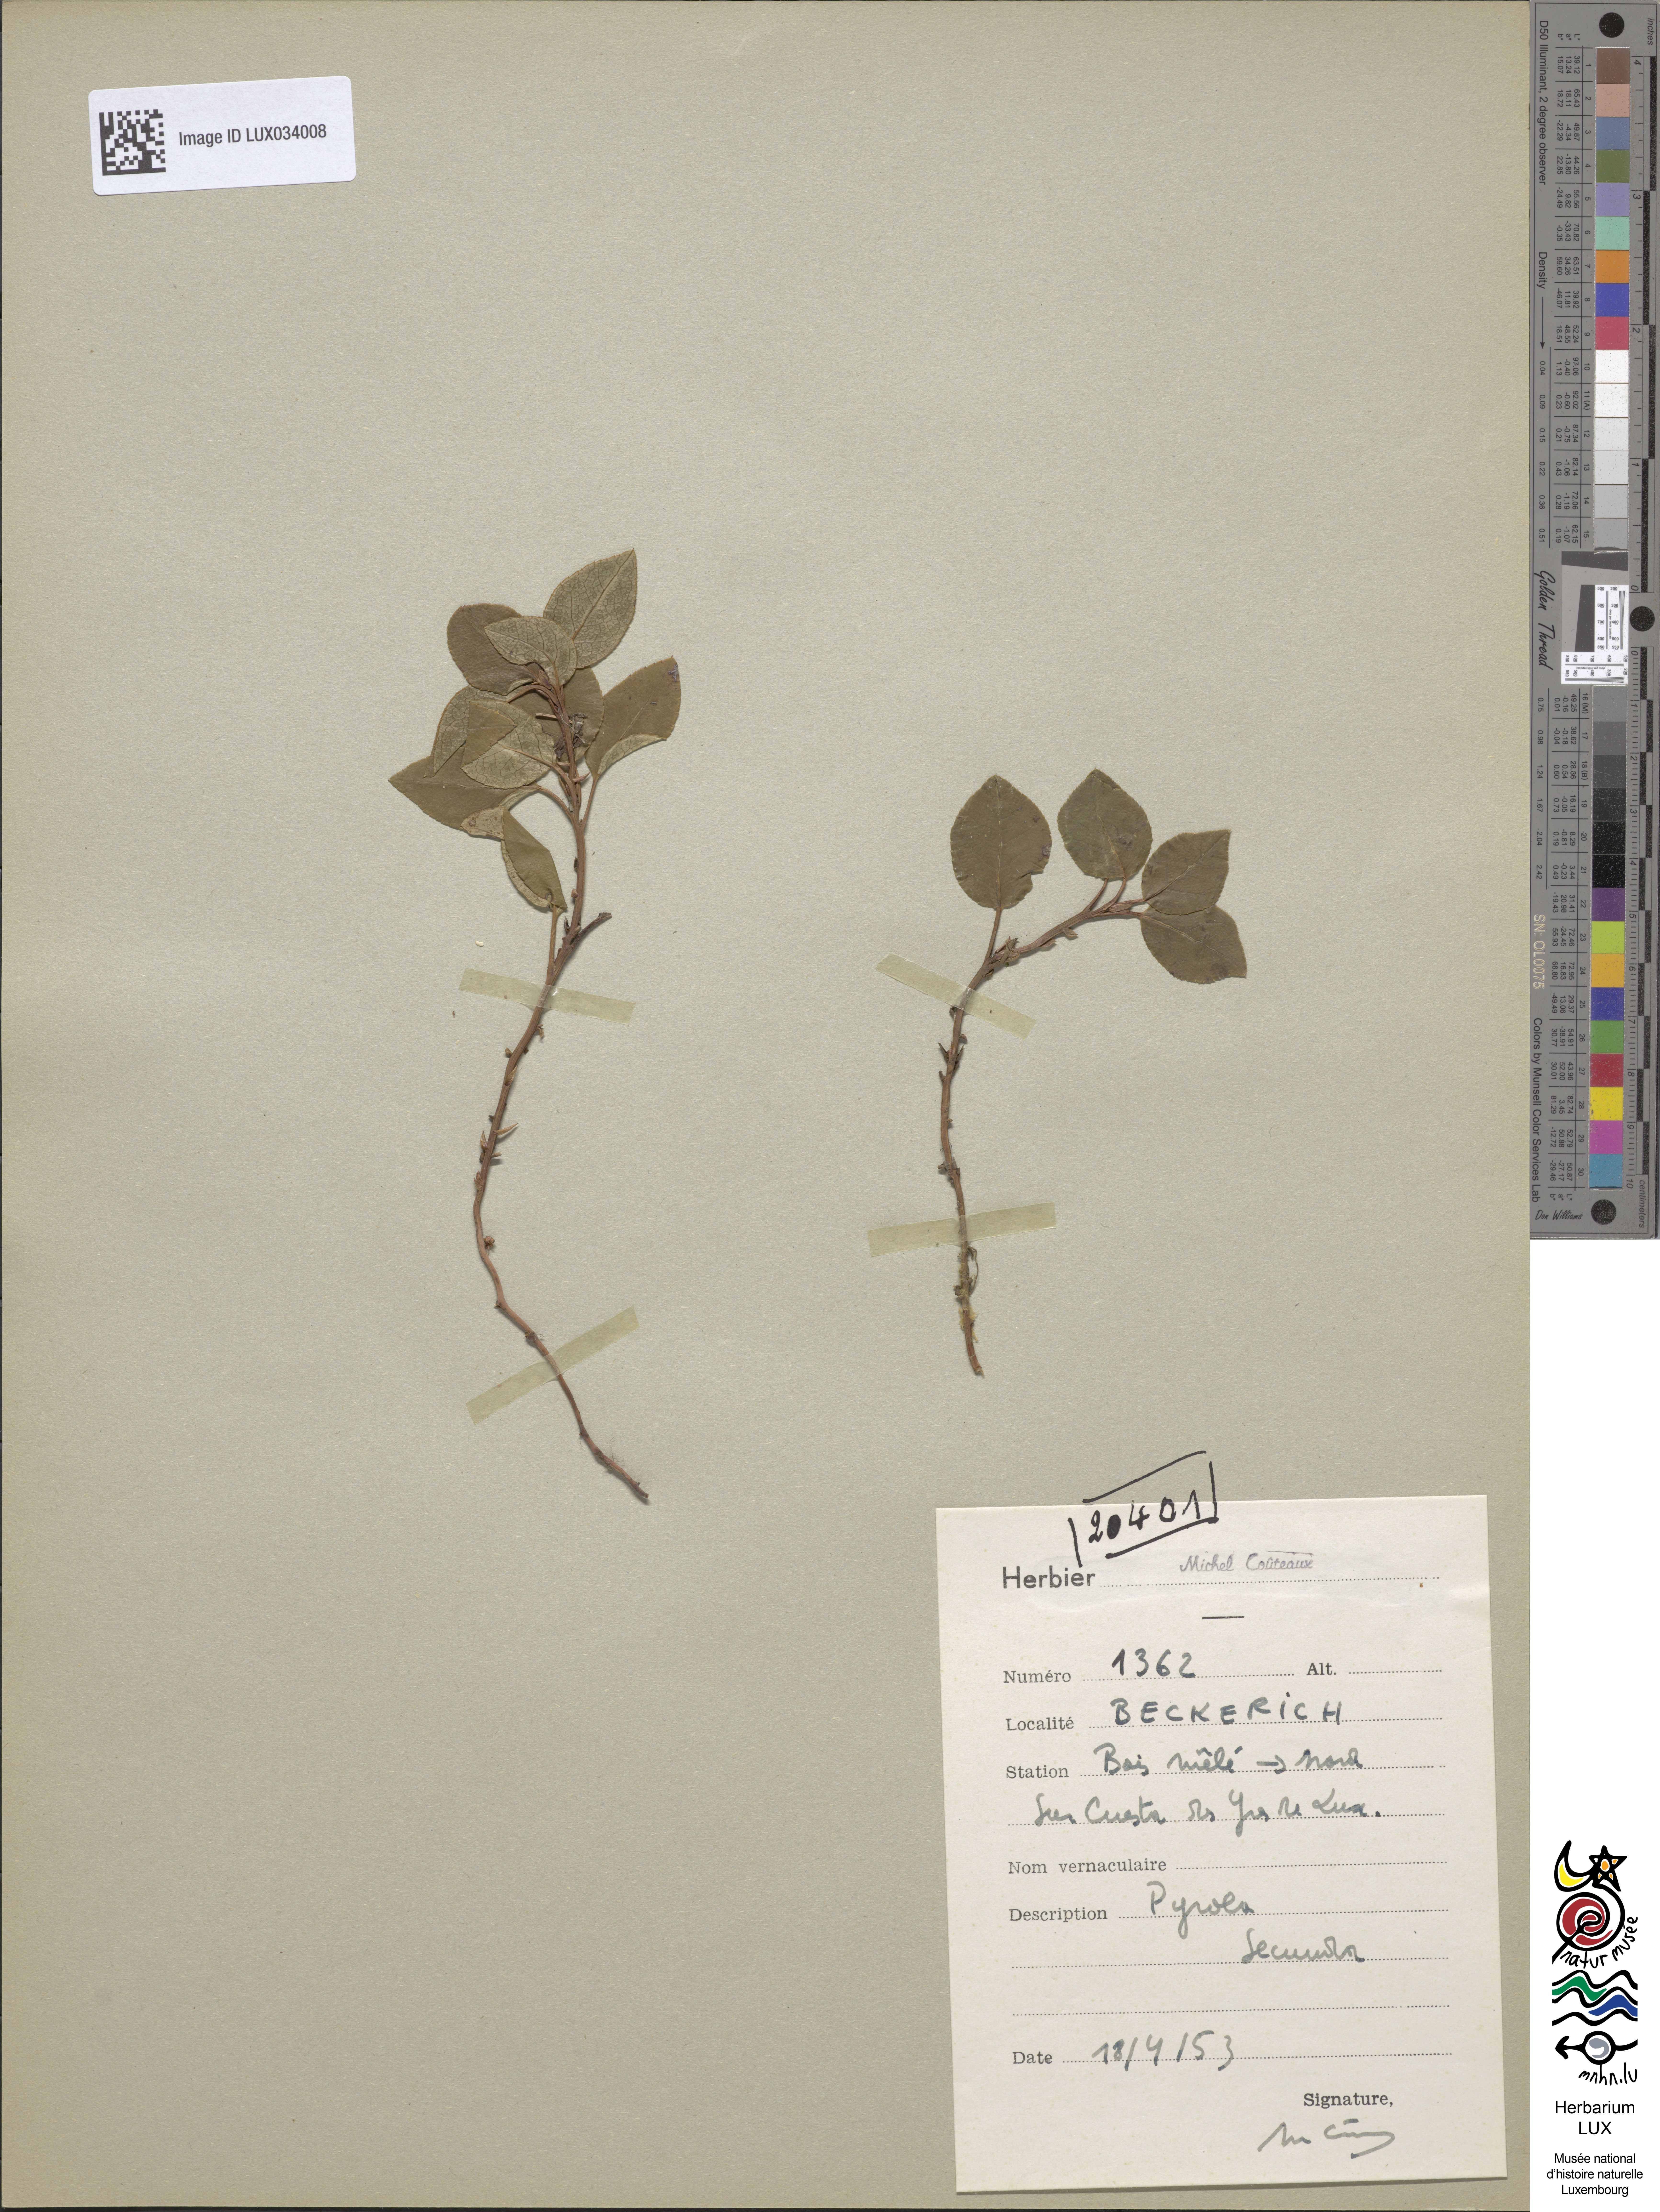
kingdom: Plantae
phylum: Tracheophyta
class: Magnoliopsida
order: Ericales
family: Ericaceae
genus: Orthilia
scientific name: Orthilia secunda
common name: One-sided orthilia
